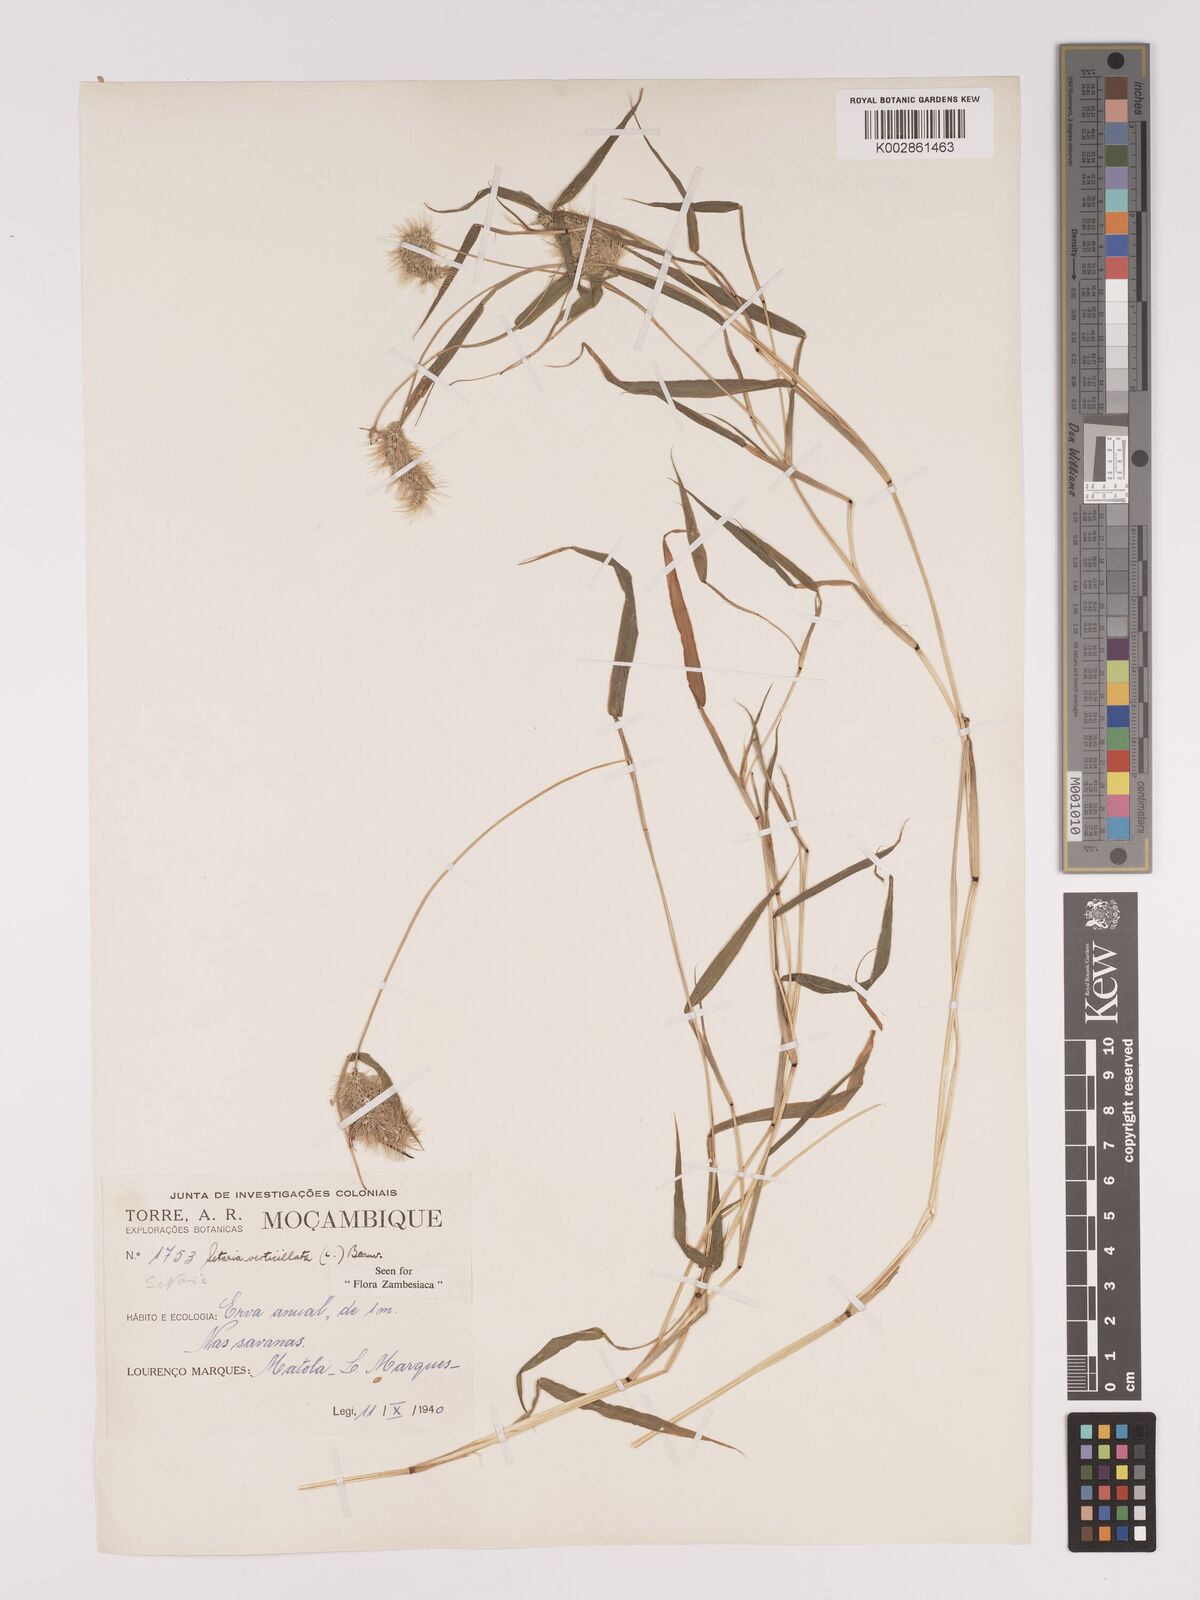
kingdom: Plantae
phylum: Tracheophyta
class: Liliopsida
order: Poales
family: Poaceae
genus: Setaria
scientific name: Setaria verticillata
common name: Hooked bristlegrass
